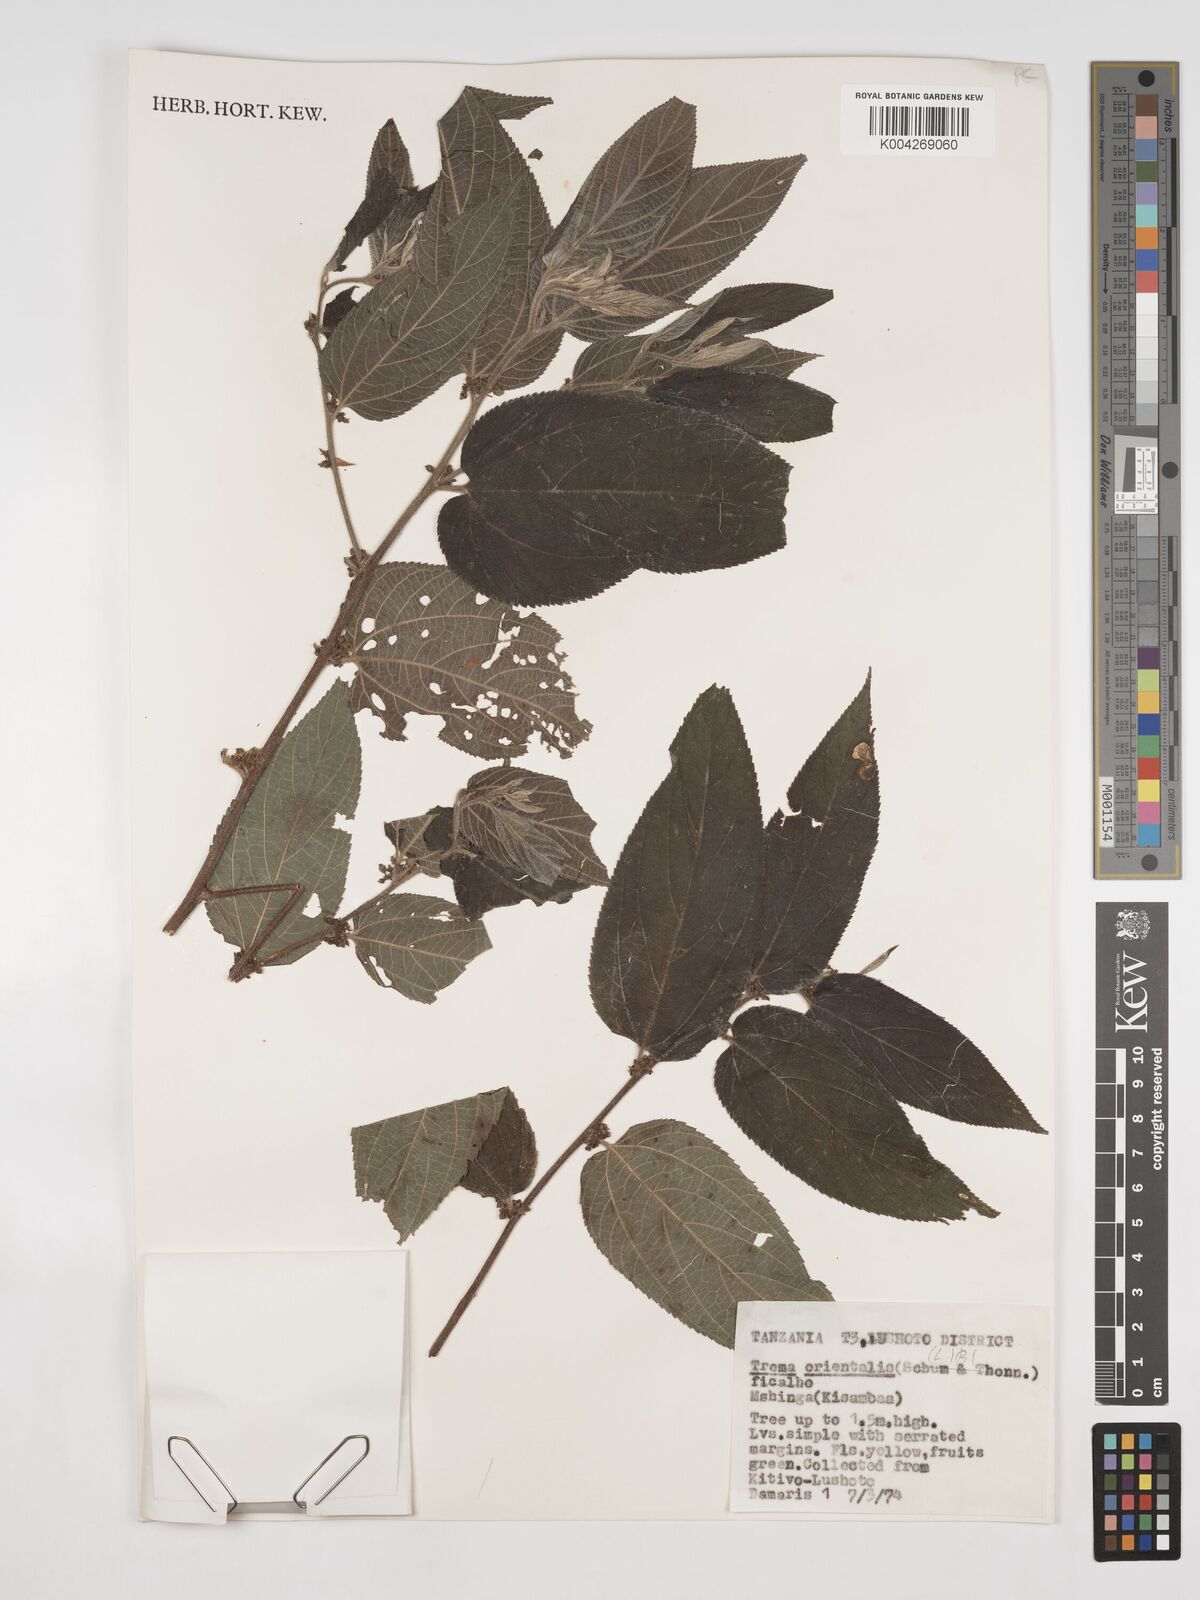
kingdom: Plantae
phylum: Tracheophyta
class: Magnoliopsida
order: Rosales
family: Cannabaceae
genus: Trema
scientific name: Trema orientale
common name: Indian charcoal tree
